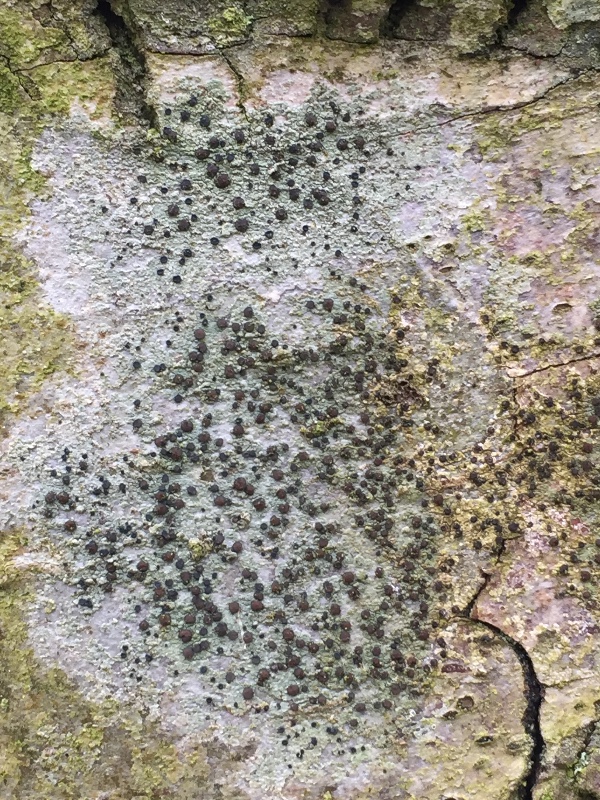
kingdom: Fungi
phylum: Ascomycota
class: Lecanoromycetes
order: Lecanorales
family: Lecanoraceae
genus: Lecidella
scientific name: Lecidella
